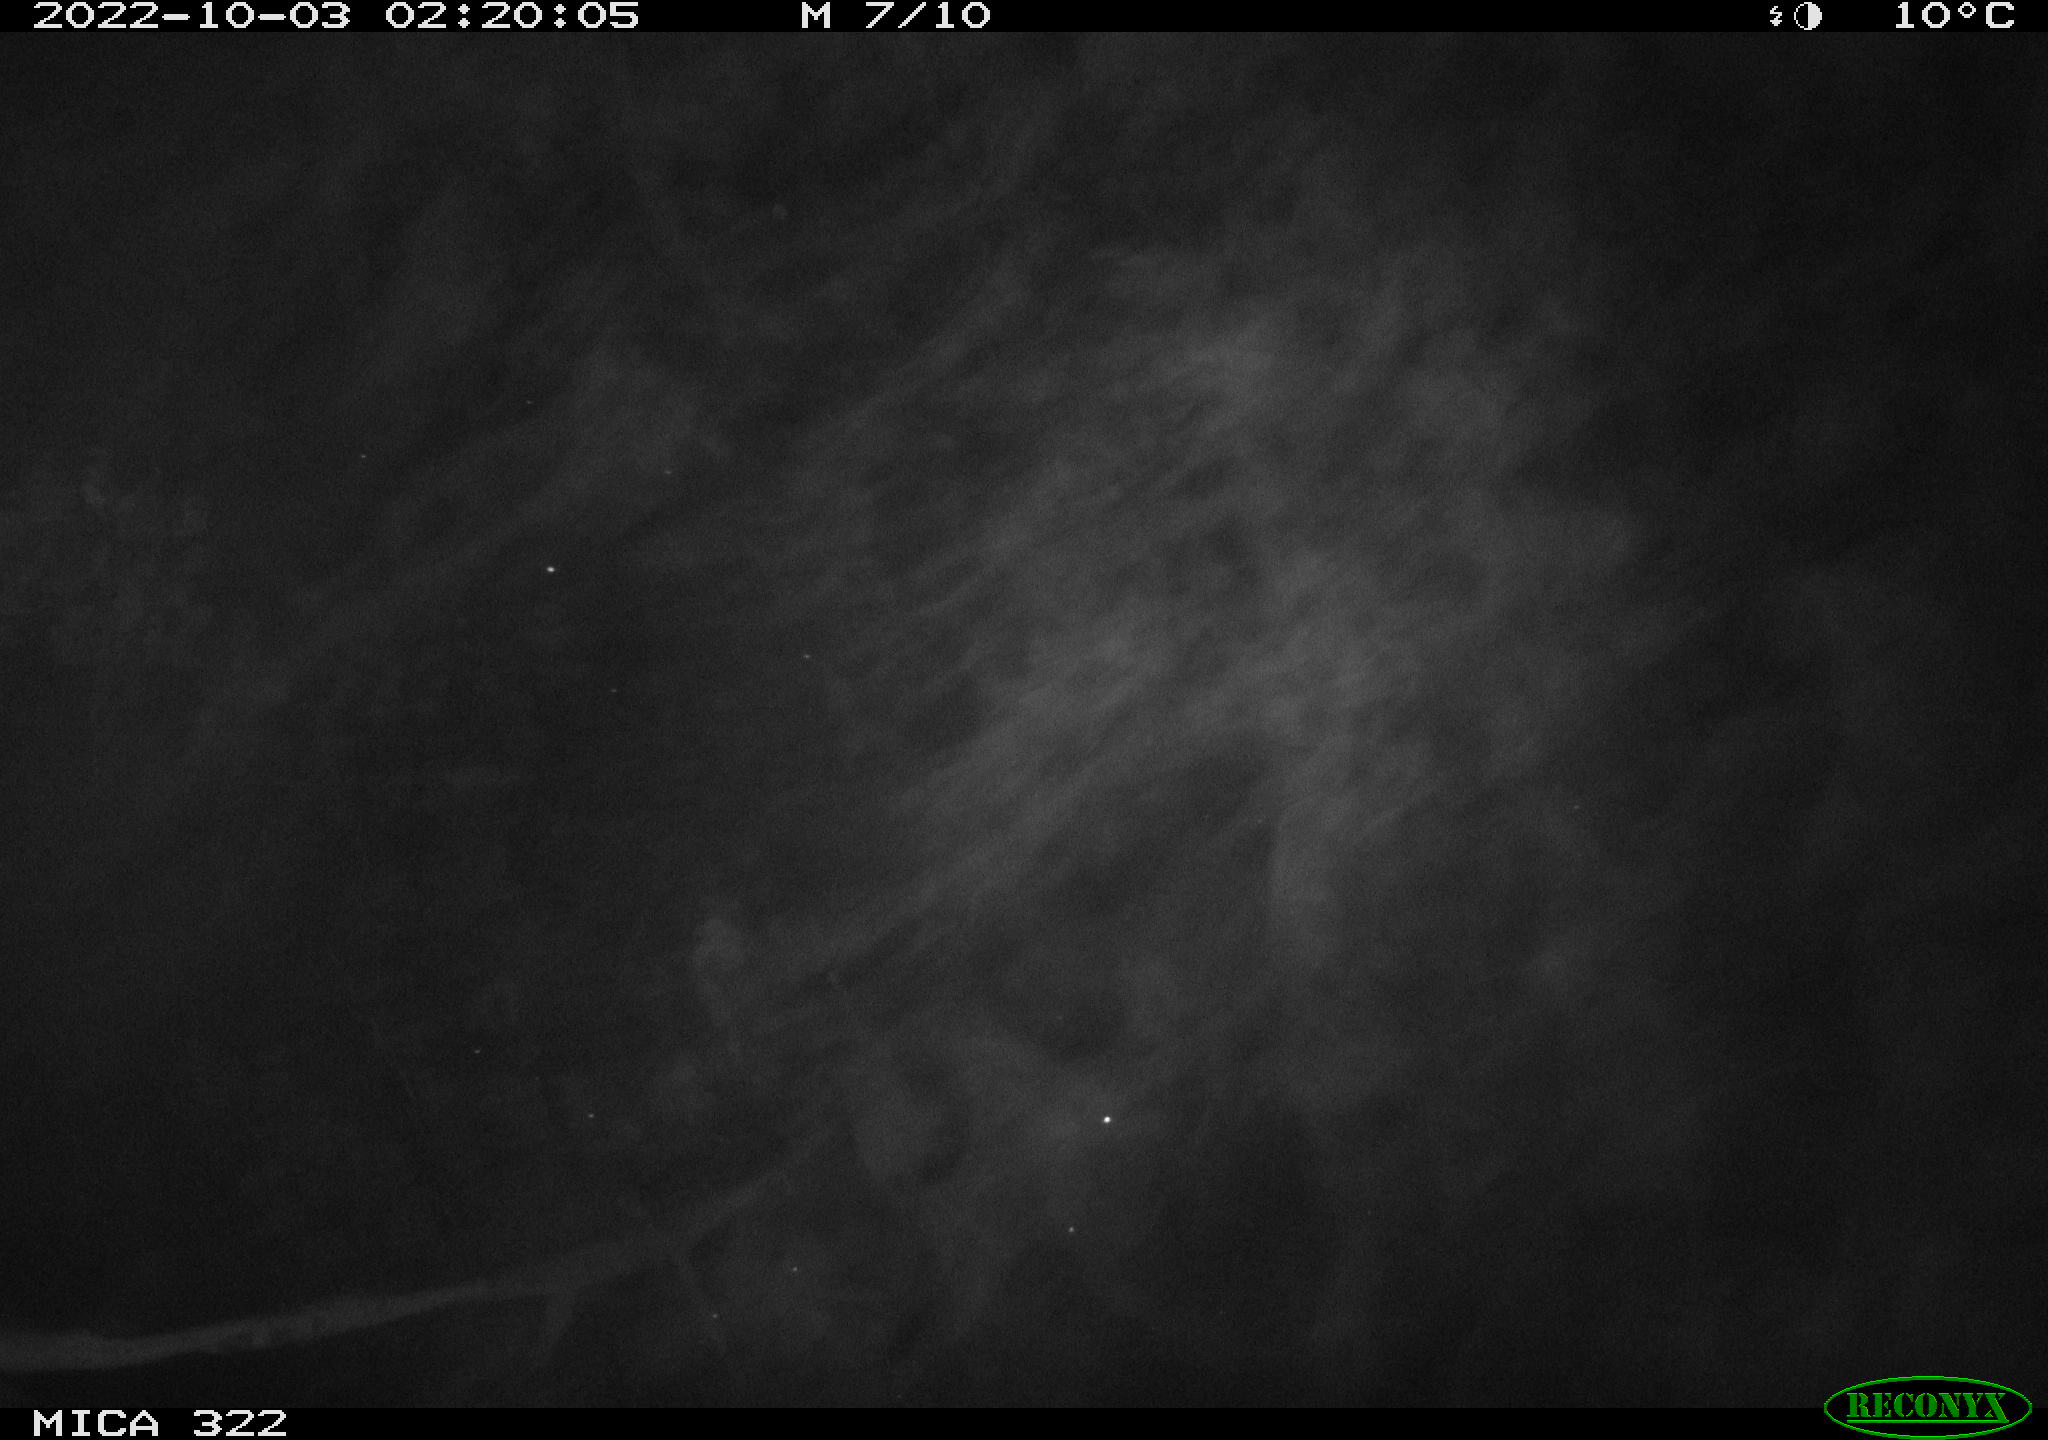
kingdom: Animalia
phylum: Chordata
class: Aves
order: Anseriformes
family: Anatidae
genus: Anas
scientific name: Anas platyrhynchos
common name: Mallard
